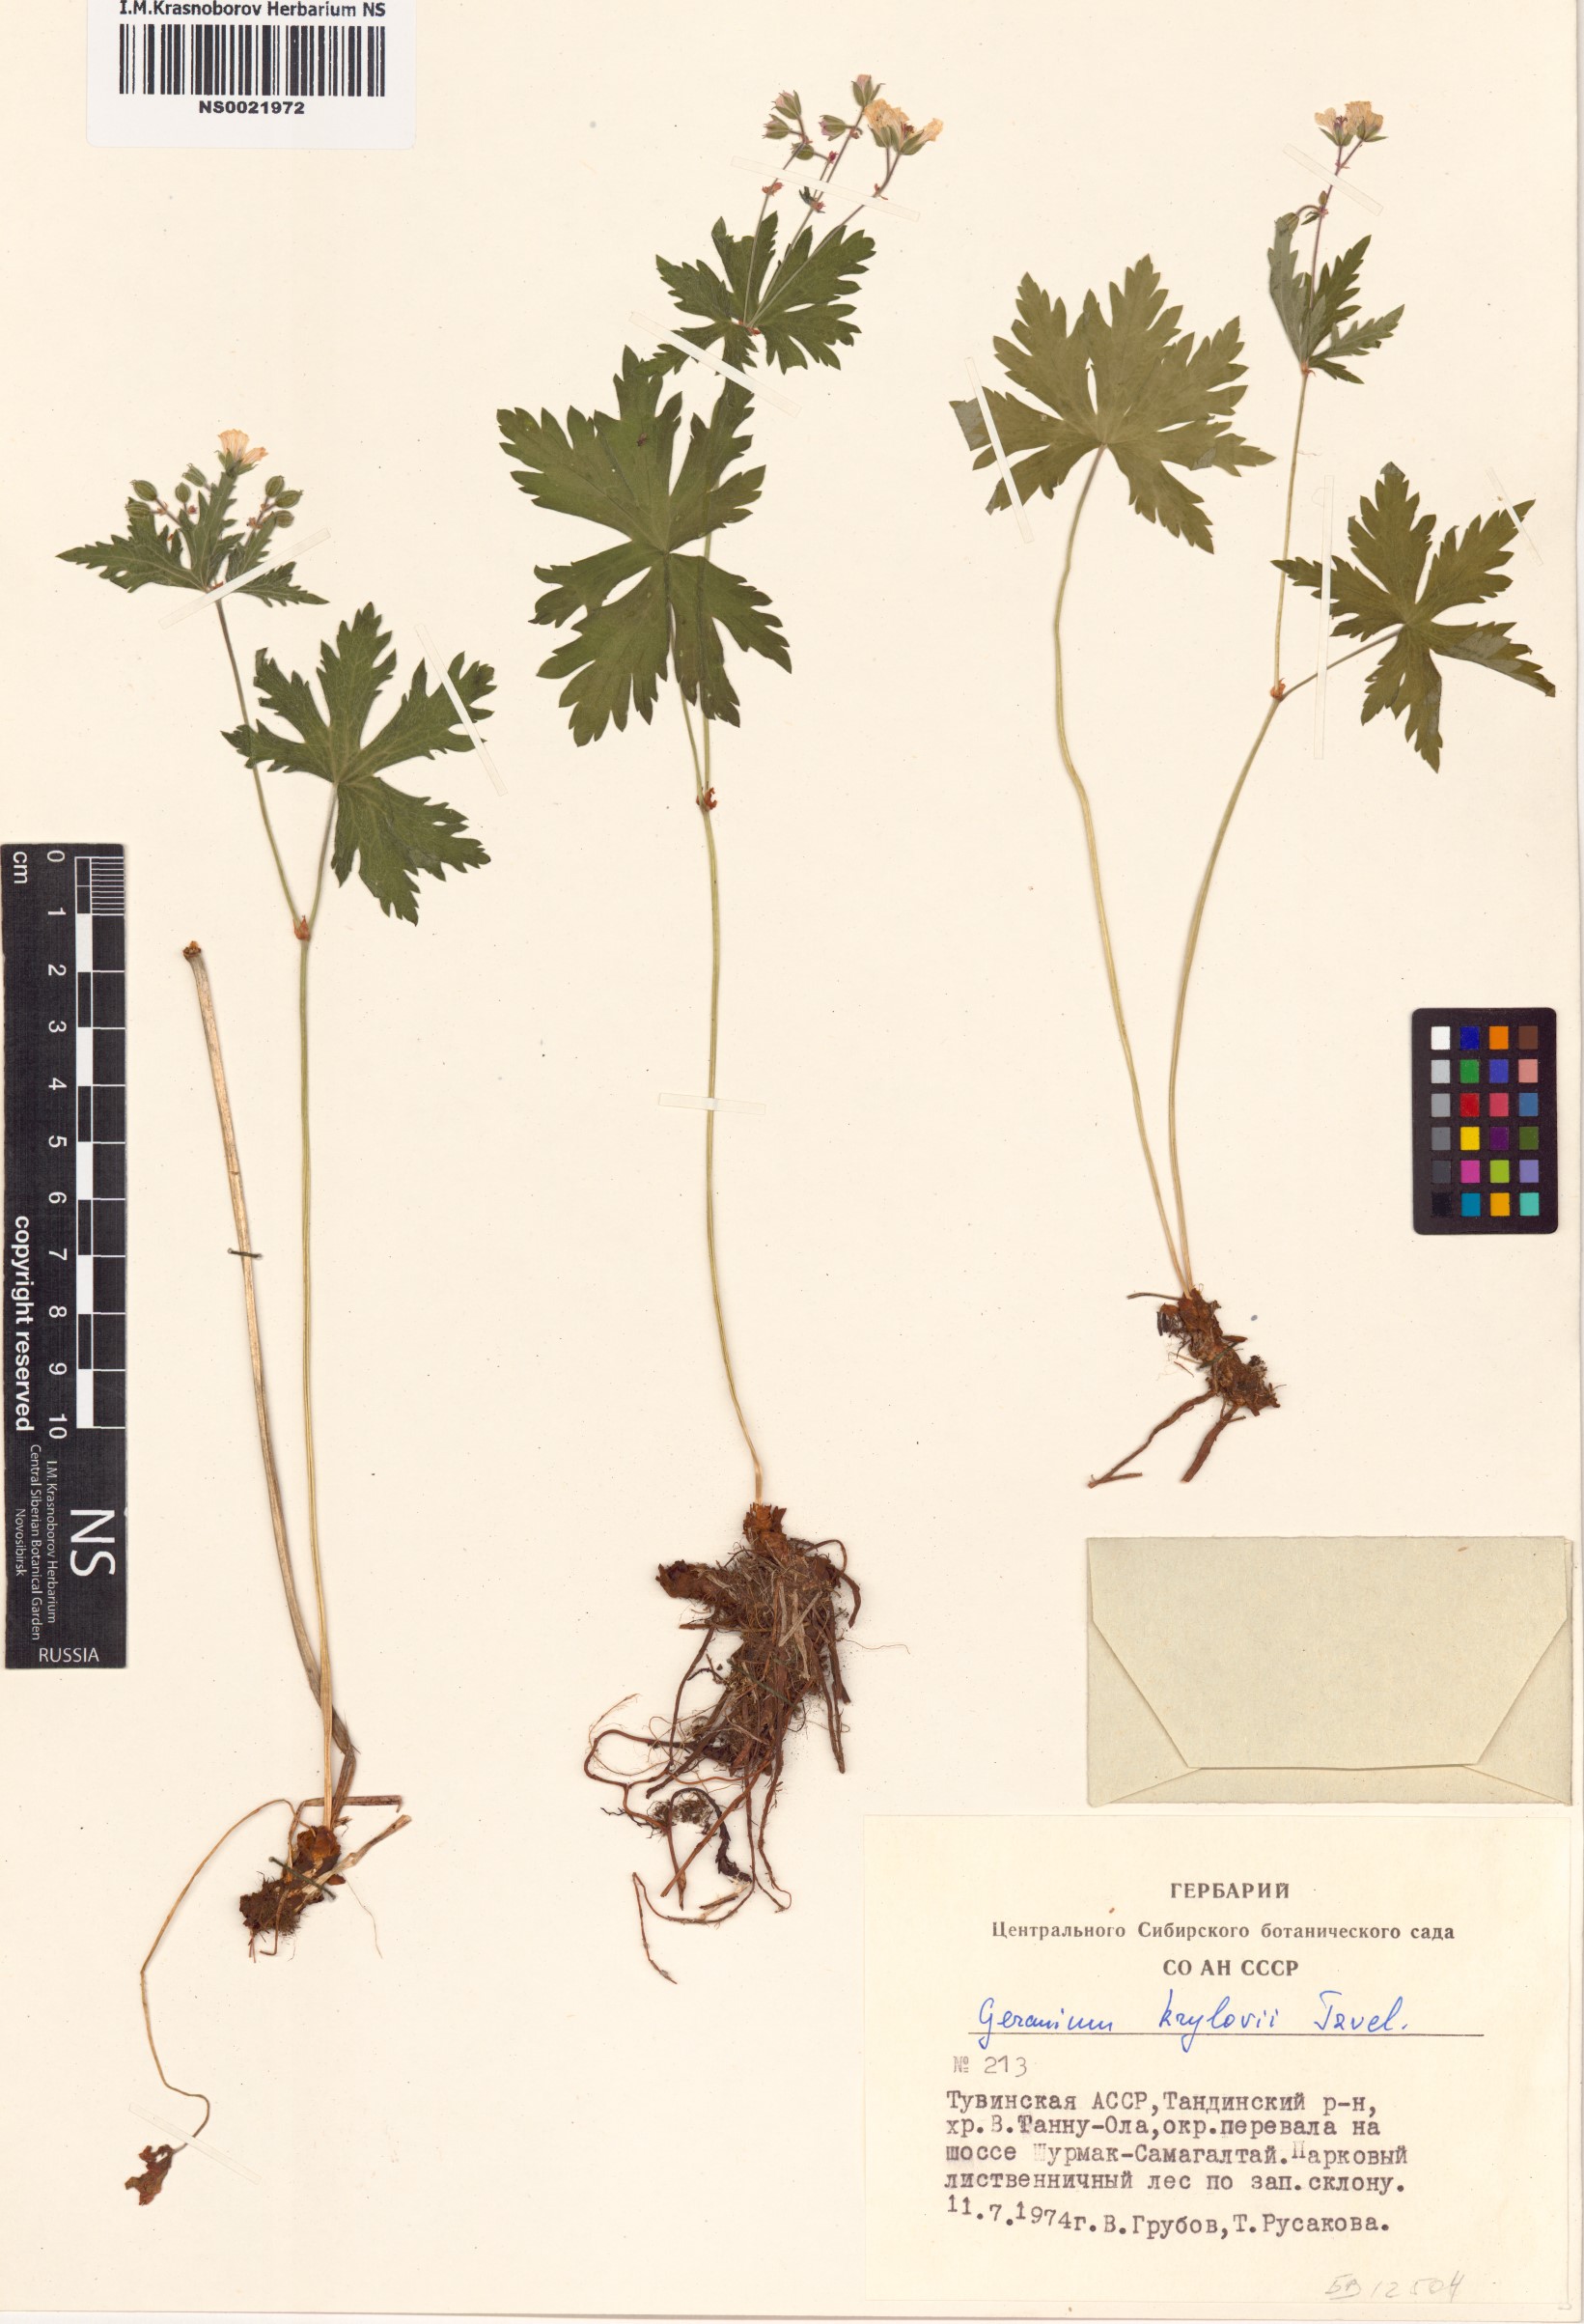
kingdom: Plantae
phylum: Tracheophyta
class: Magnoliopsida
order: Geraniales
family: Geraniaceae
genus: Geranium
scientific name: Geranium sylvaticum
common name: Wood crane's-bill
